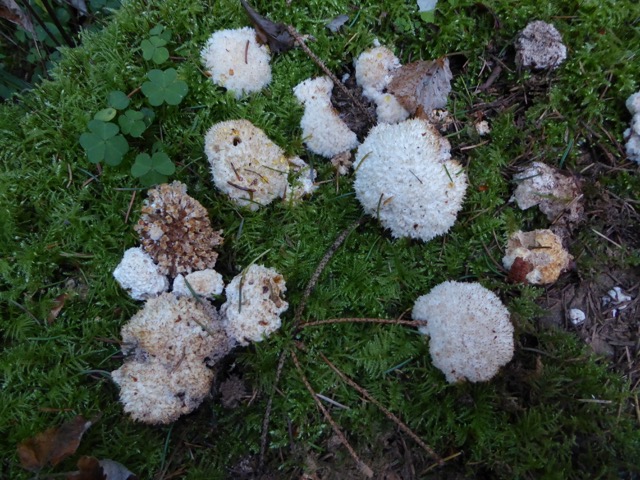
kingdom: Fungi
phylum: Basidiomycota
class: Agaricomycetes
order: Polyporales
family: Dacryobolaceae
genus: Postia
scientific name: Postia ptychogaster
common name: støvende kødporesvamp
